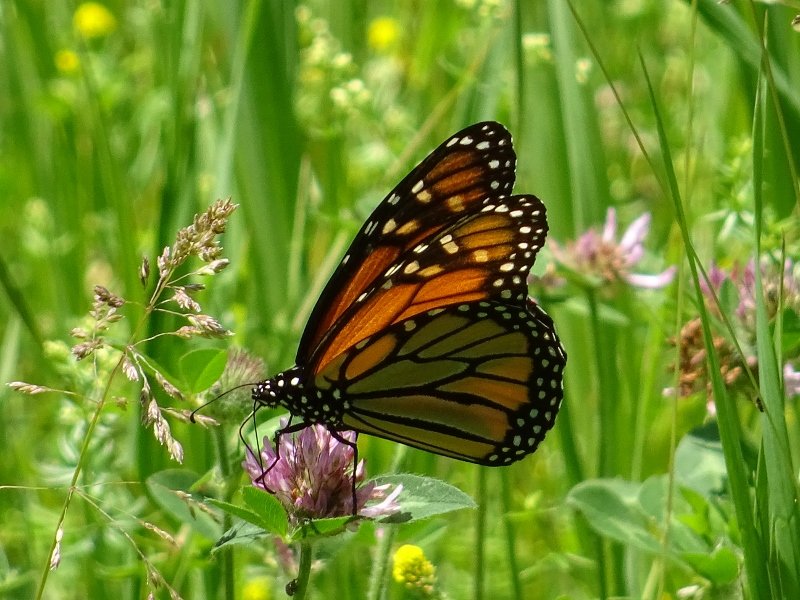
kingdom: Animalia
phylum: Arthropoda
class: Insecta
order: Lepidoptera
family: Nymphalidae
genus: Danaus
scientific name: Danaus plexippus
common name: Monarch
